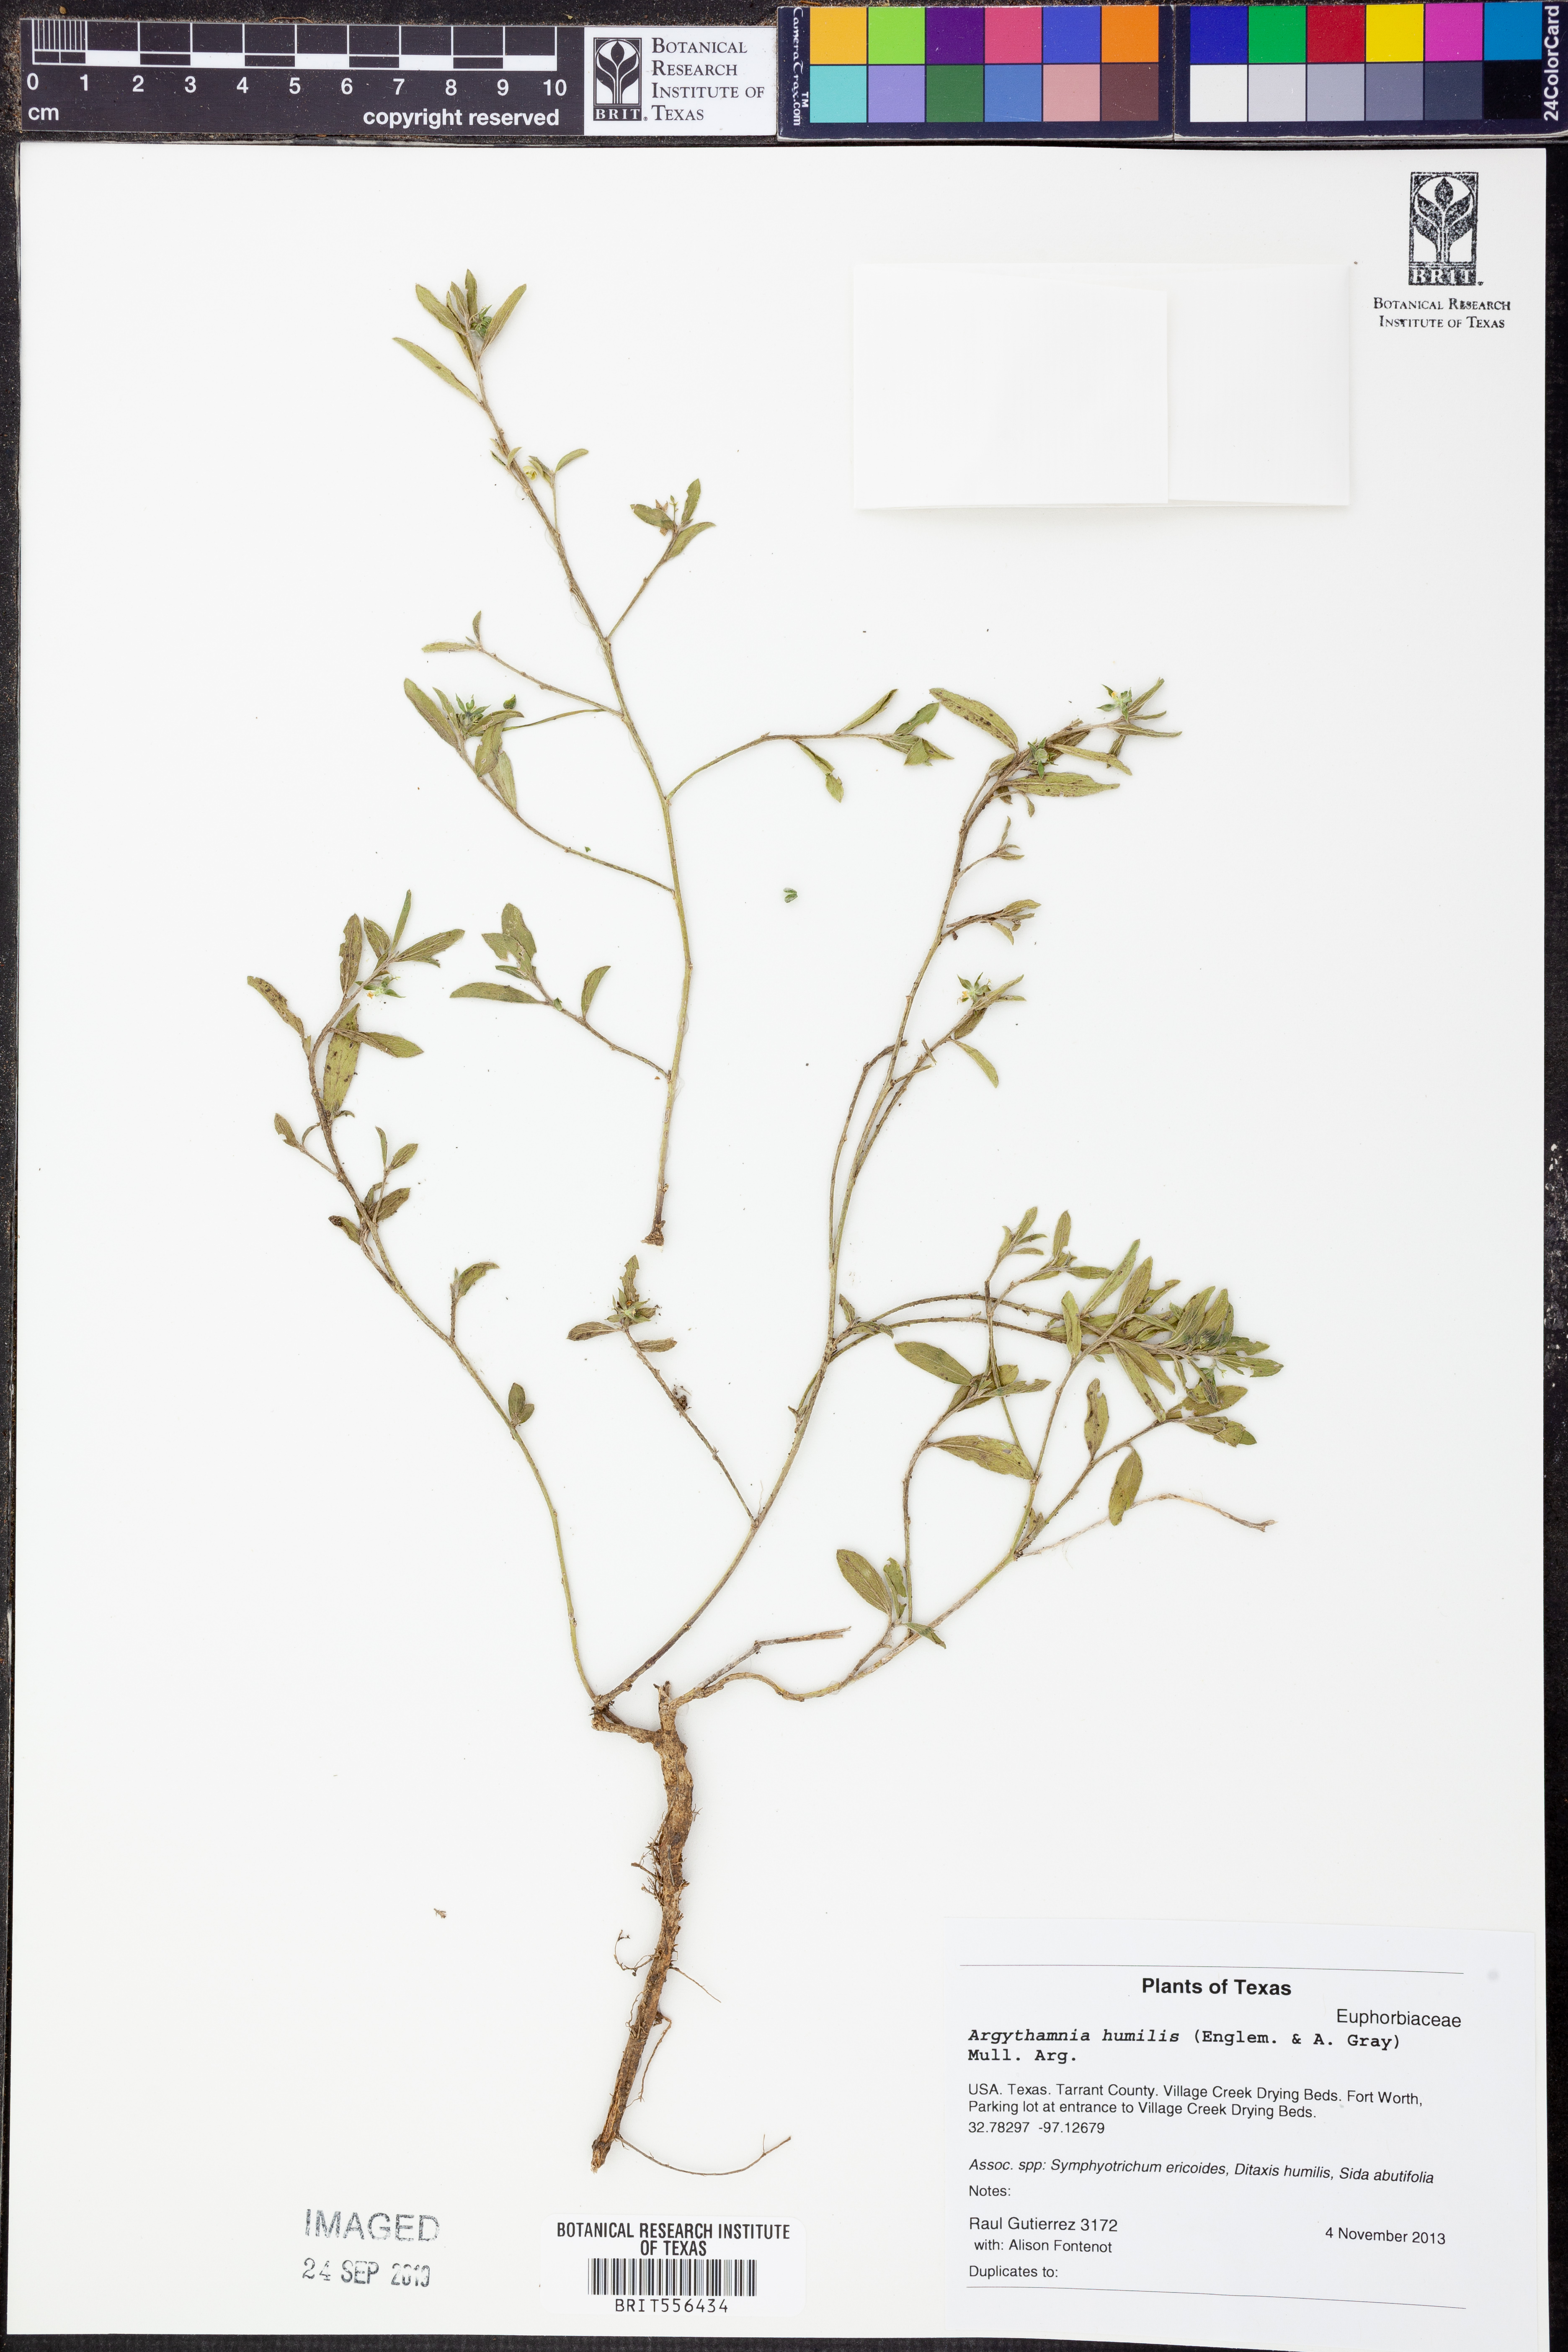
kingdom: Plantae
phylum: Tracheophyta
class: Magnoliopsida
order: Malpighiales
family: Euphorbiaceae
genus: Ditaxis
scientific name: Ditaxis humilis
